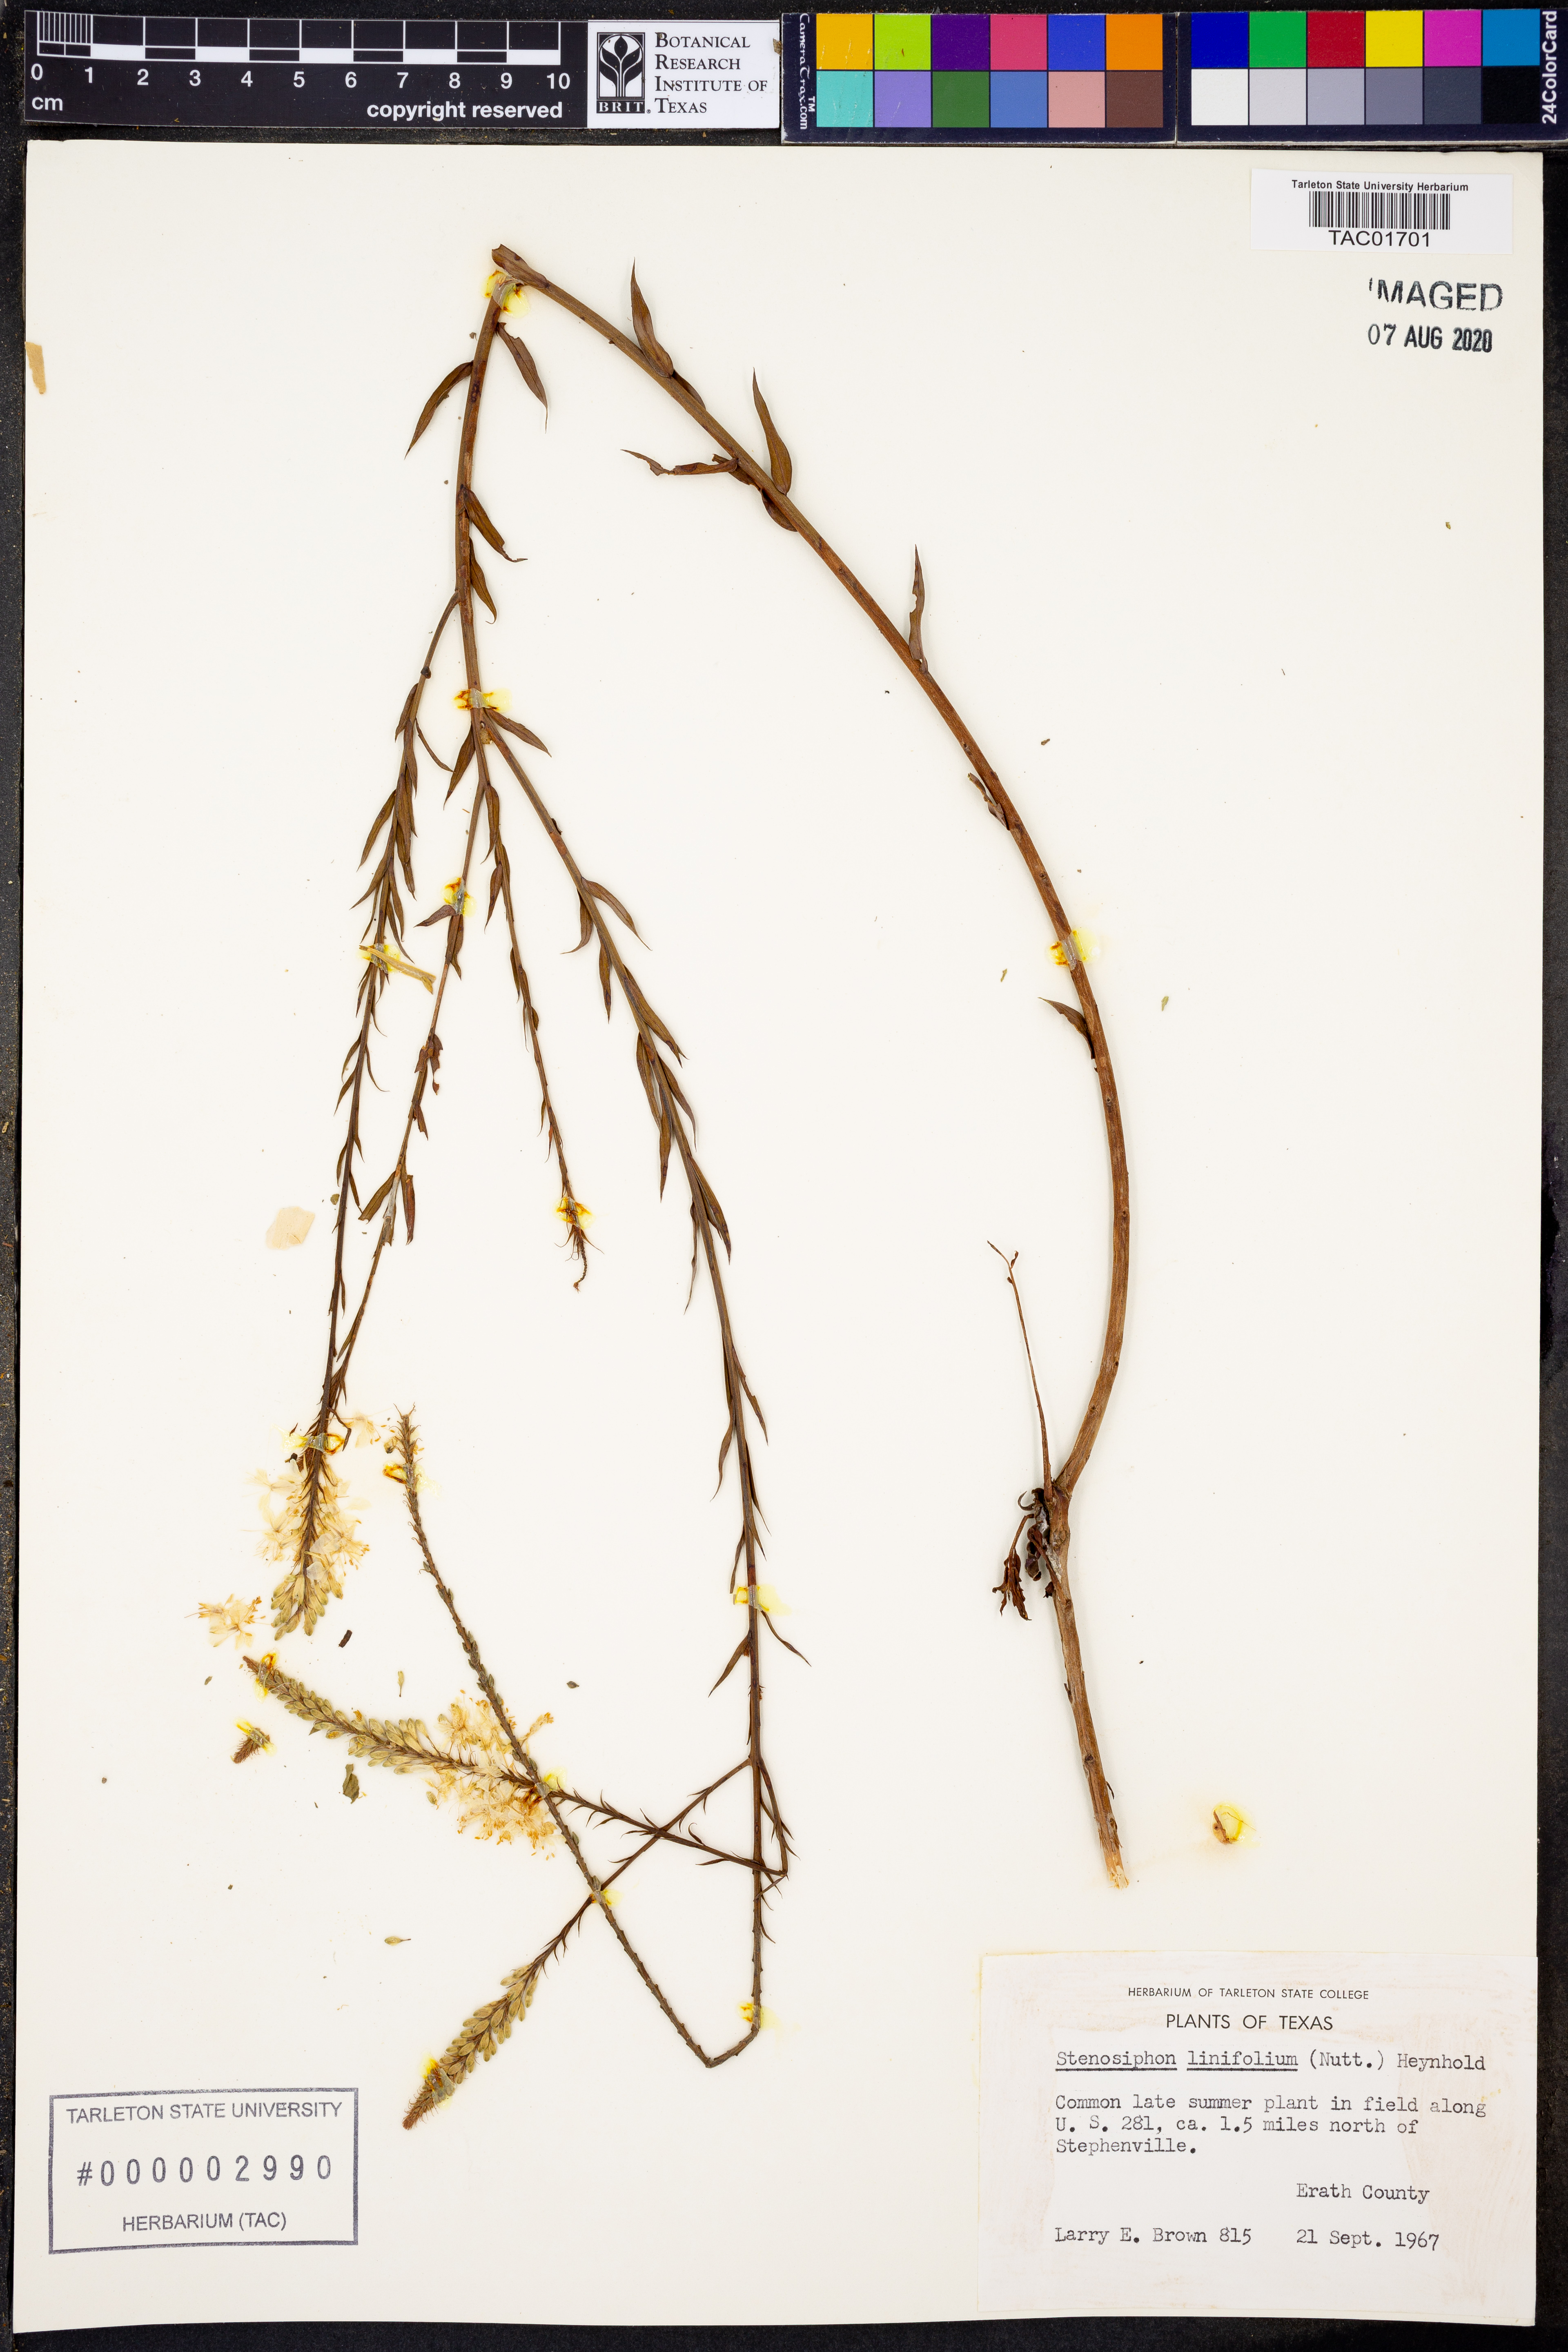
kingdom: Plantae
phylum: Tracheophyta
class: Magnoliopsida
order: Myrtales
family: Onagraceae
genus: Oenothera
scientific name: Oenothera glaucifolia
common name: False gaura
